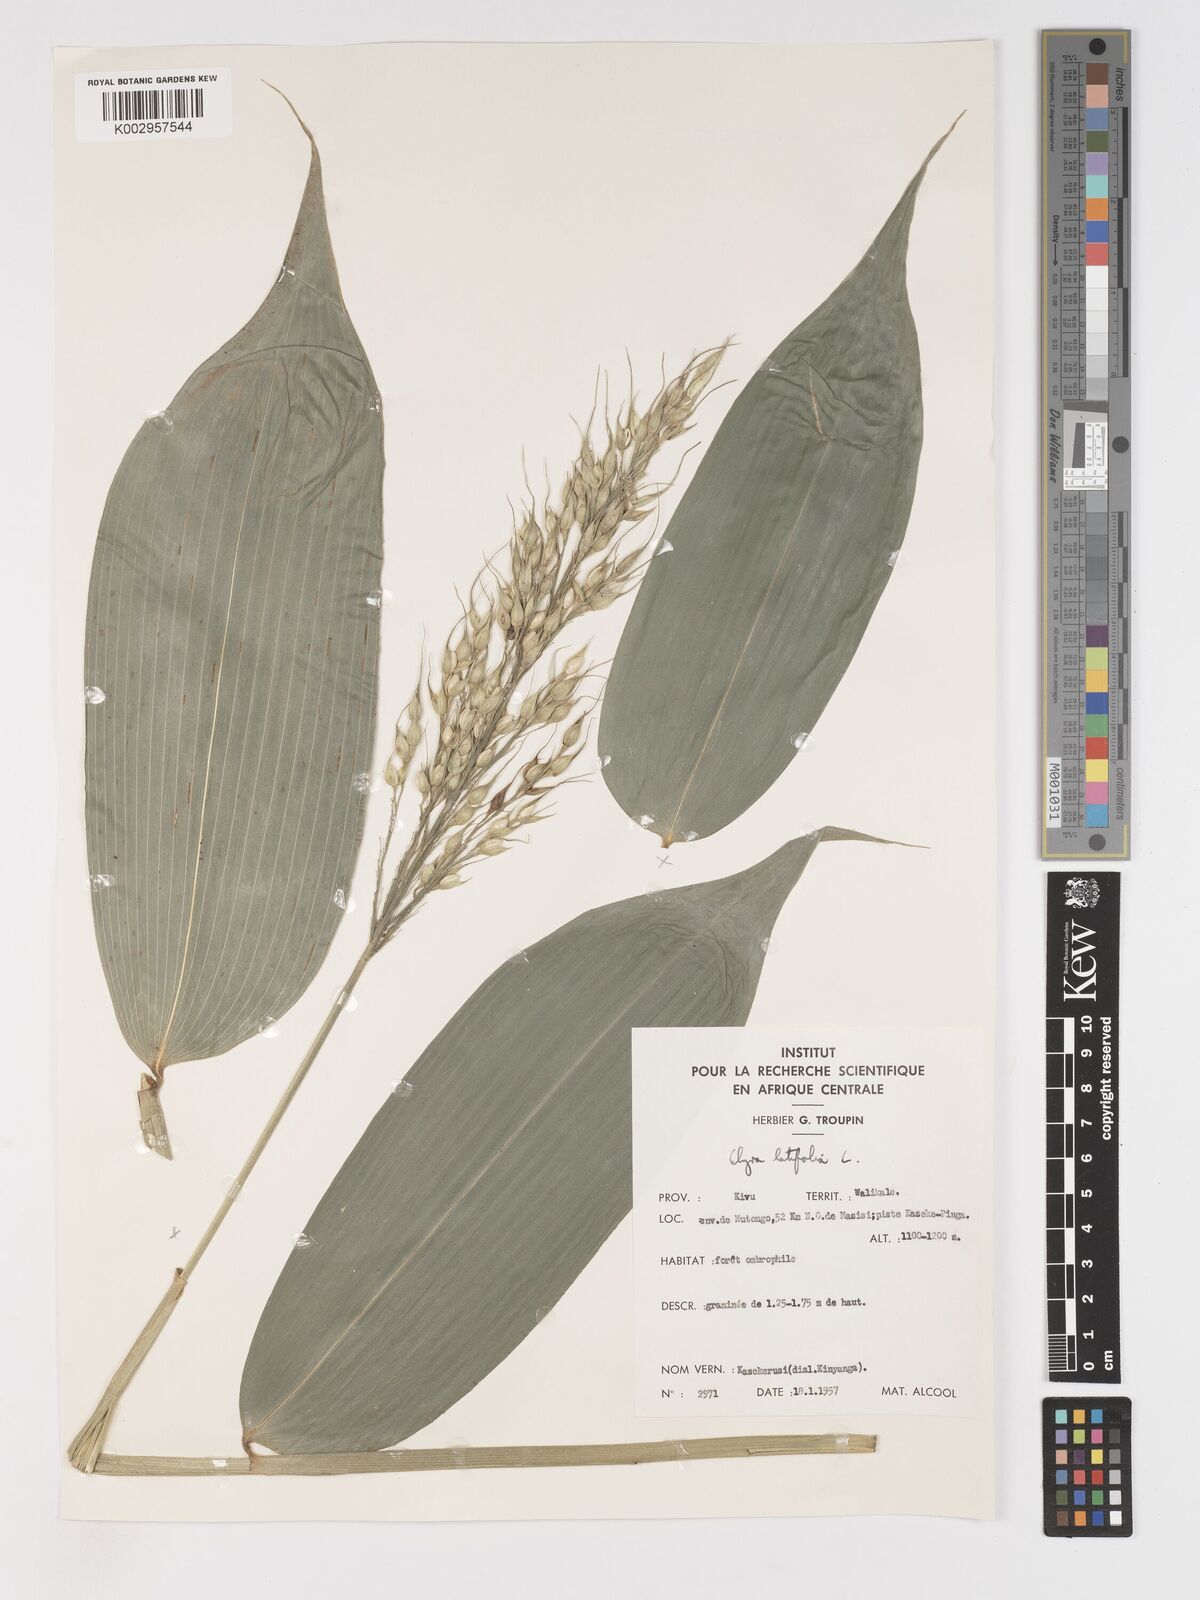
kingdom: Plantae
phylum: Tracheophyta
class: Liliopsida
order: Poales
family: Poaceae
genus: Olyra
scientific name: Olyra latifolia
